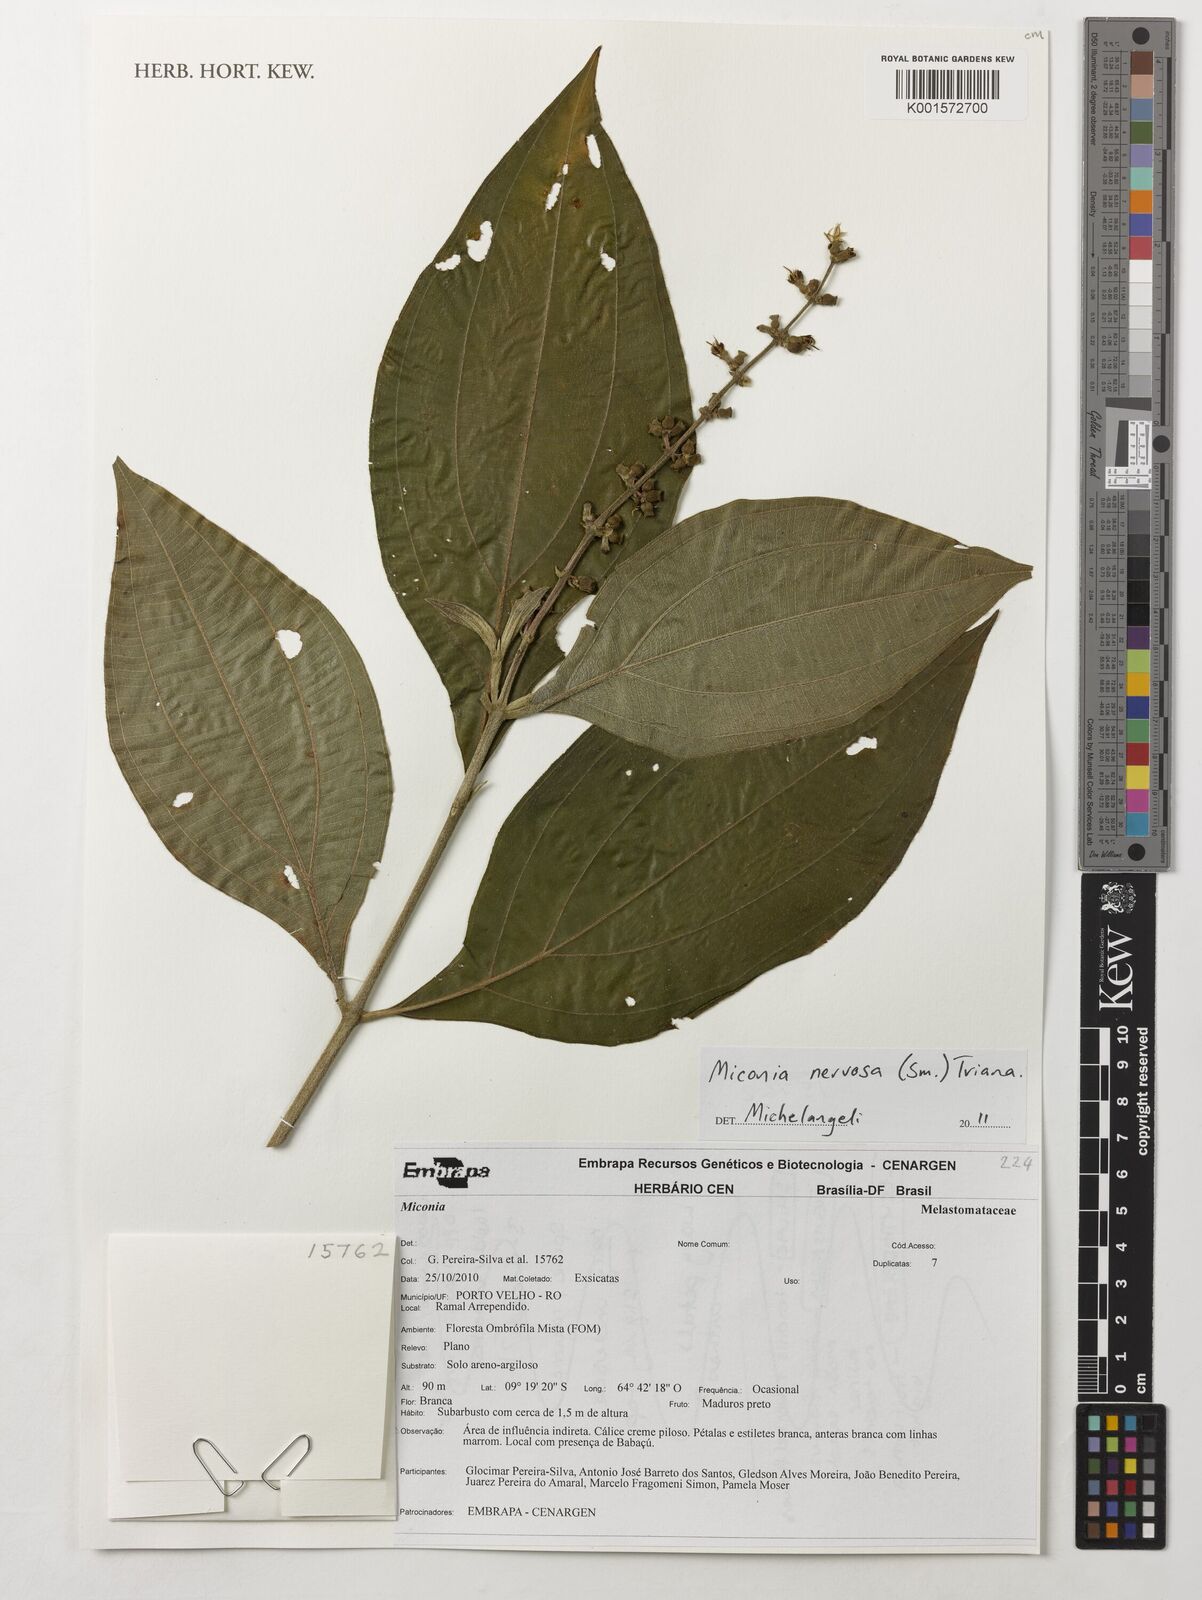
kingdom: Plantae
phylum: Tracheophyta
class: Magnoliopsida
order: Myrtales
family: Melastomataceae
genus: Miconia
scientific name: Miconia nervosa
